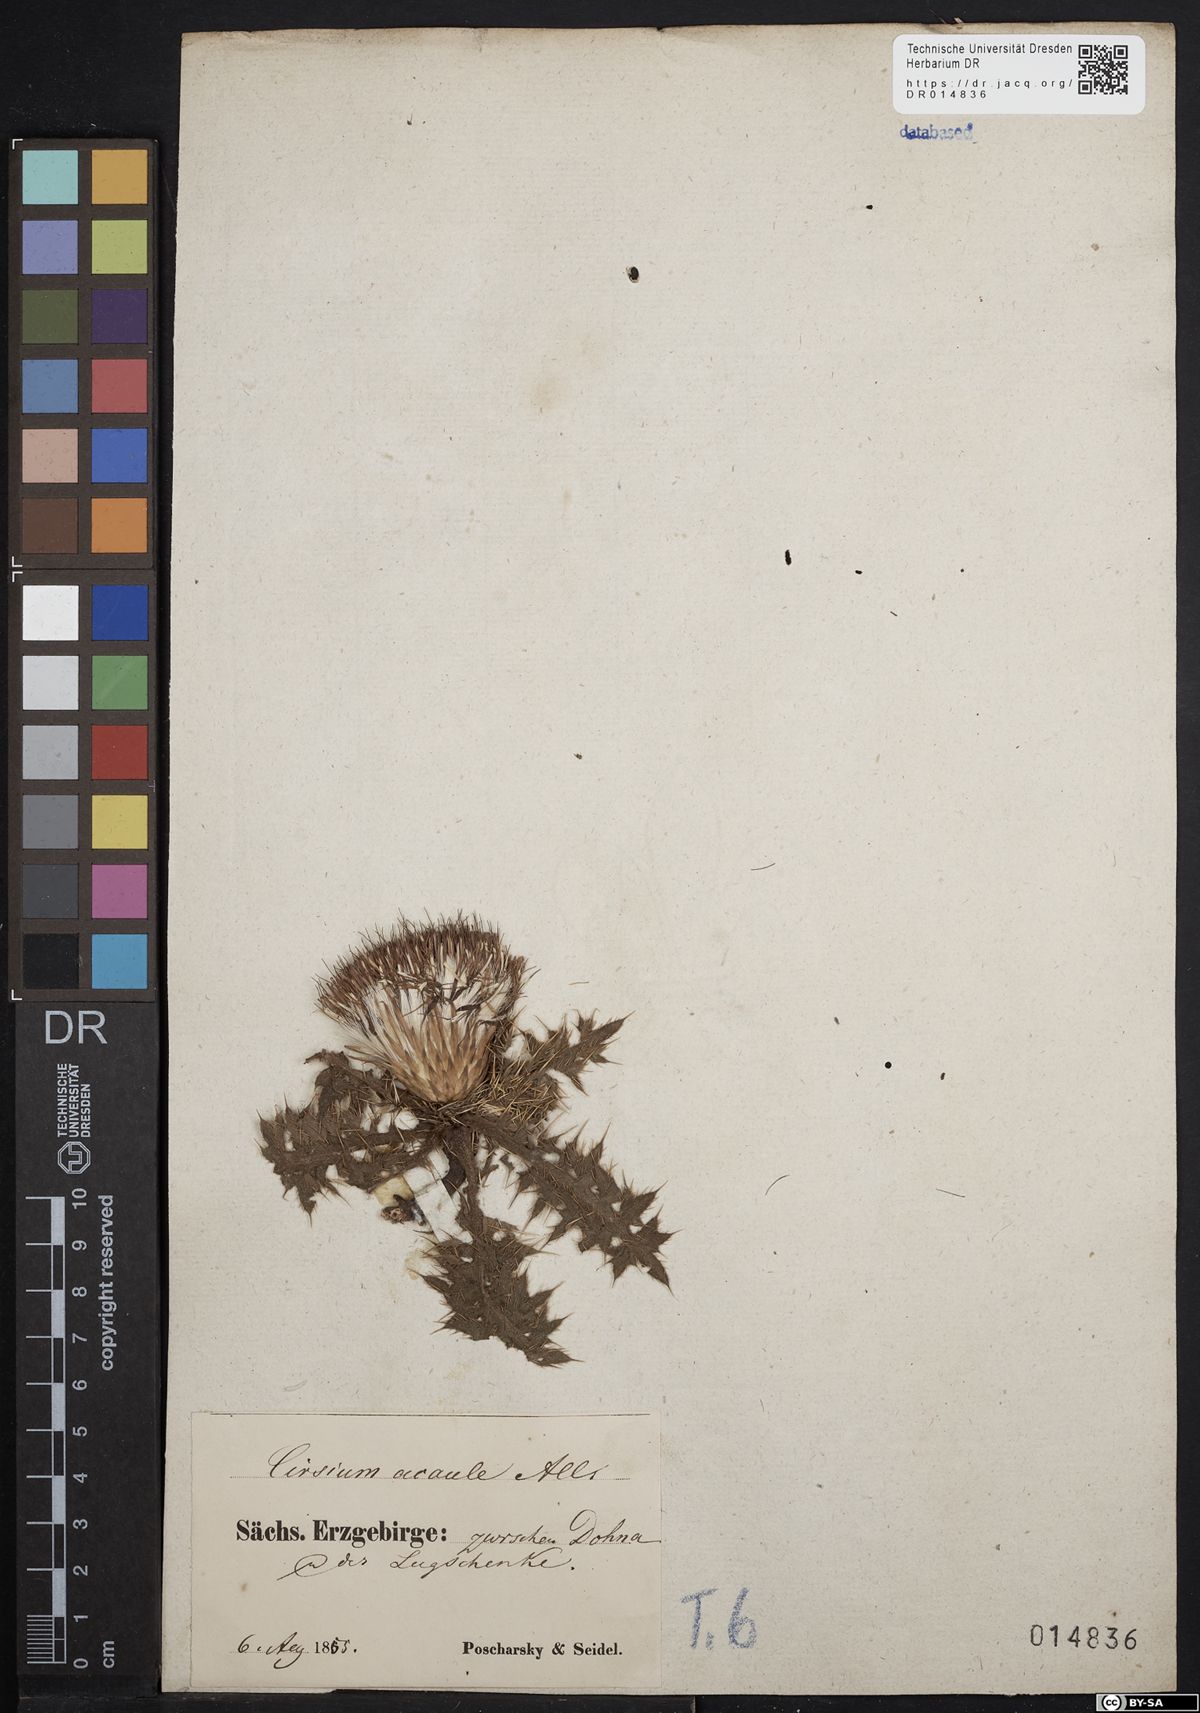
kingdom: Plantae
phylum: Tracheophyta
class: Magnoliopsida
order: Asterales
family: Asteraceae
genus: Cirsium
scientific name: Cirsium acaule
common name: Dwarf thistle
